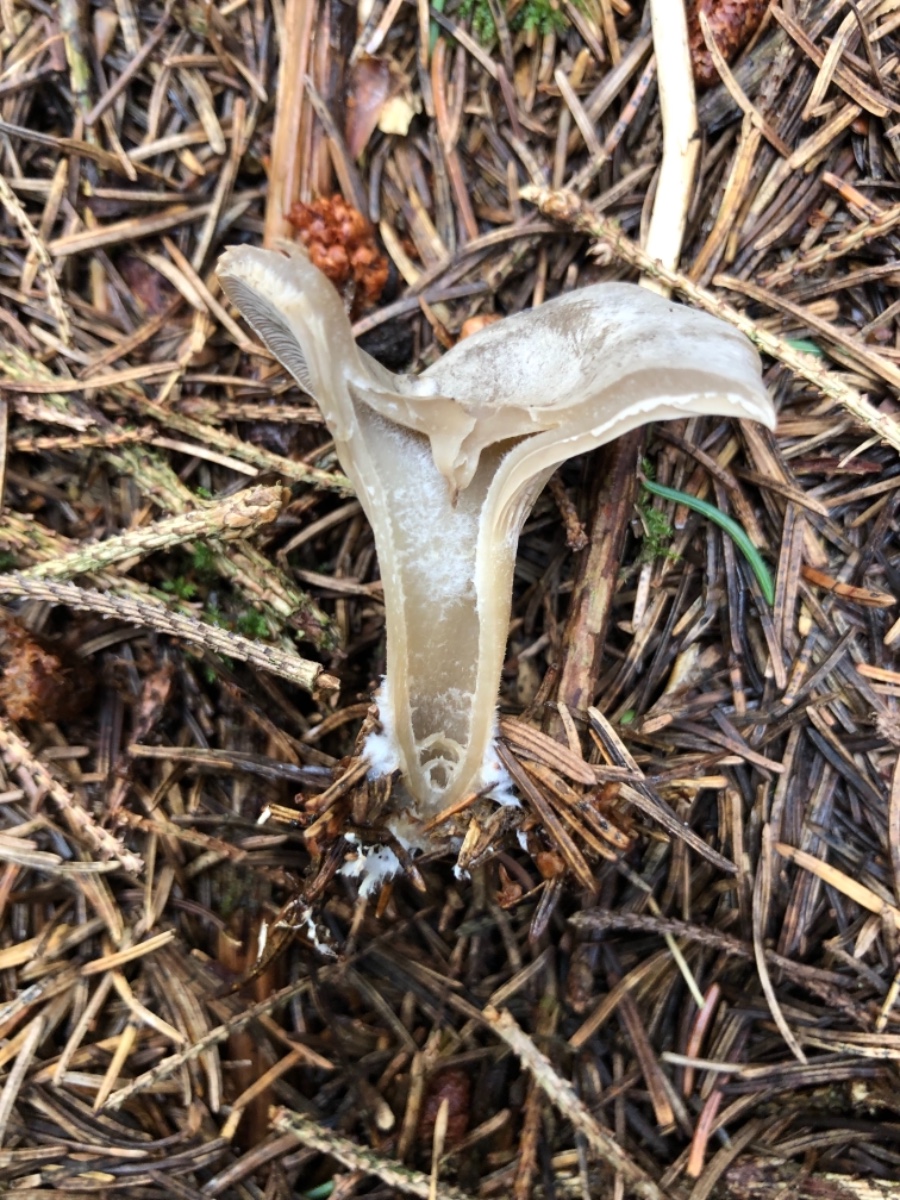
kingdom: Fungi
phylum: Basidiomycota
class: Agaricomycetes
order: Agaricales
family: Tricholomataceae
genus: Clitocybe
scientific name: Clitocybe
